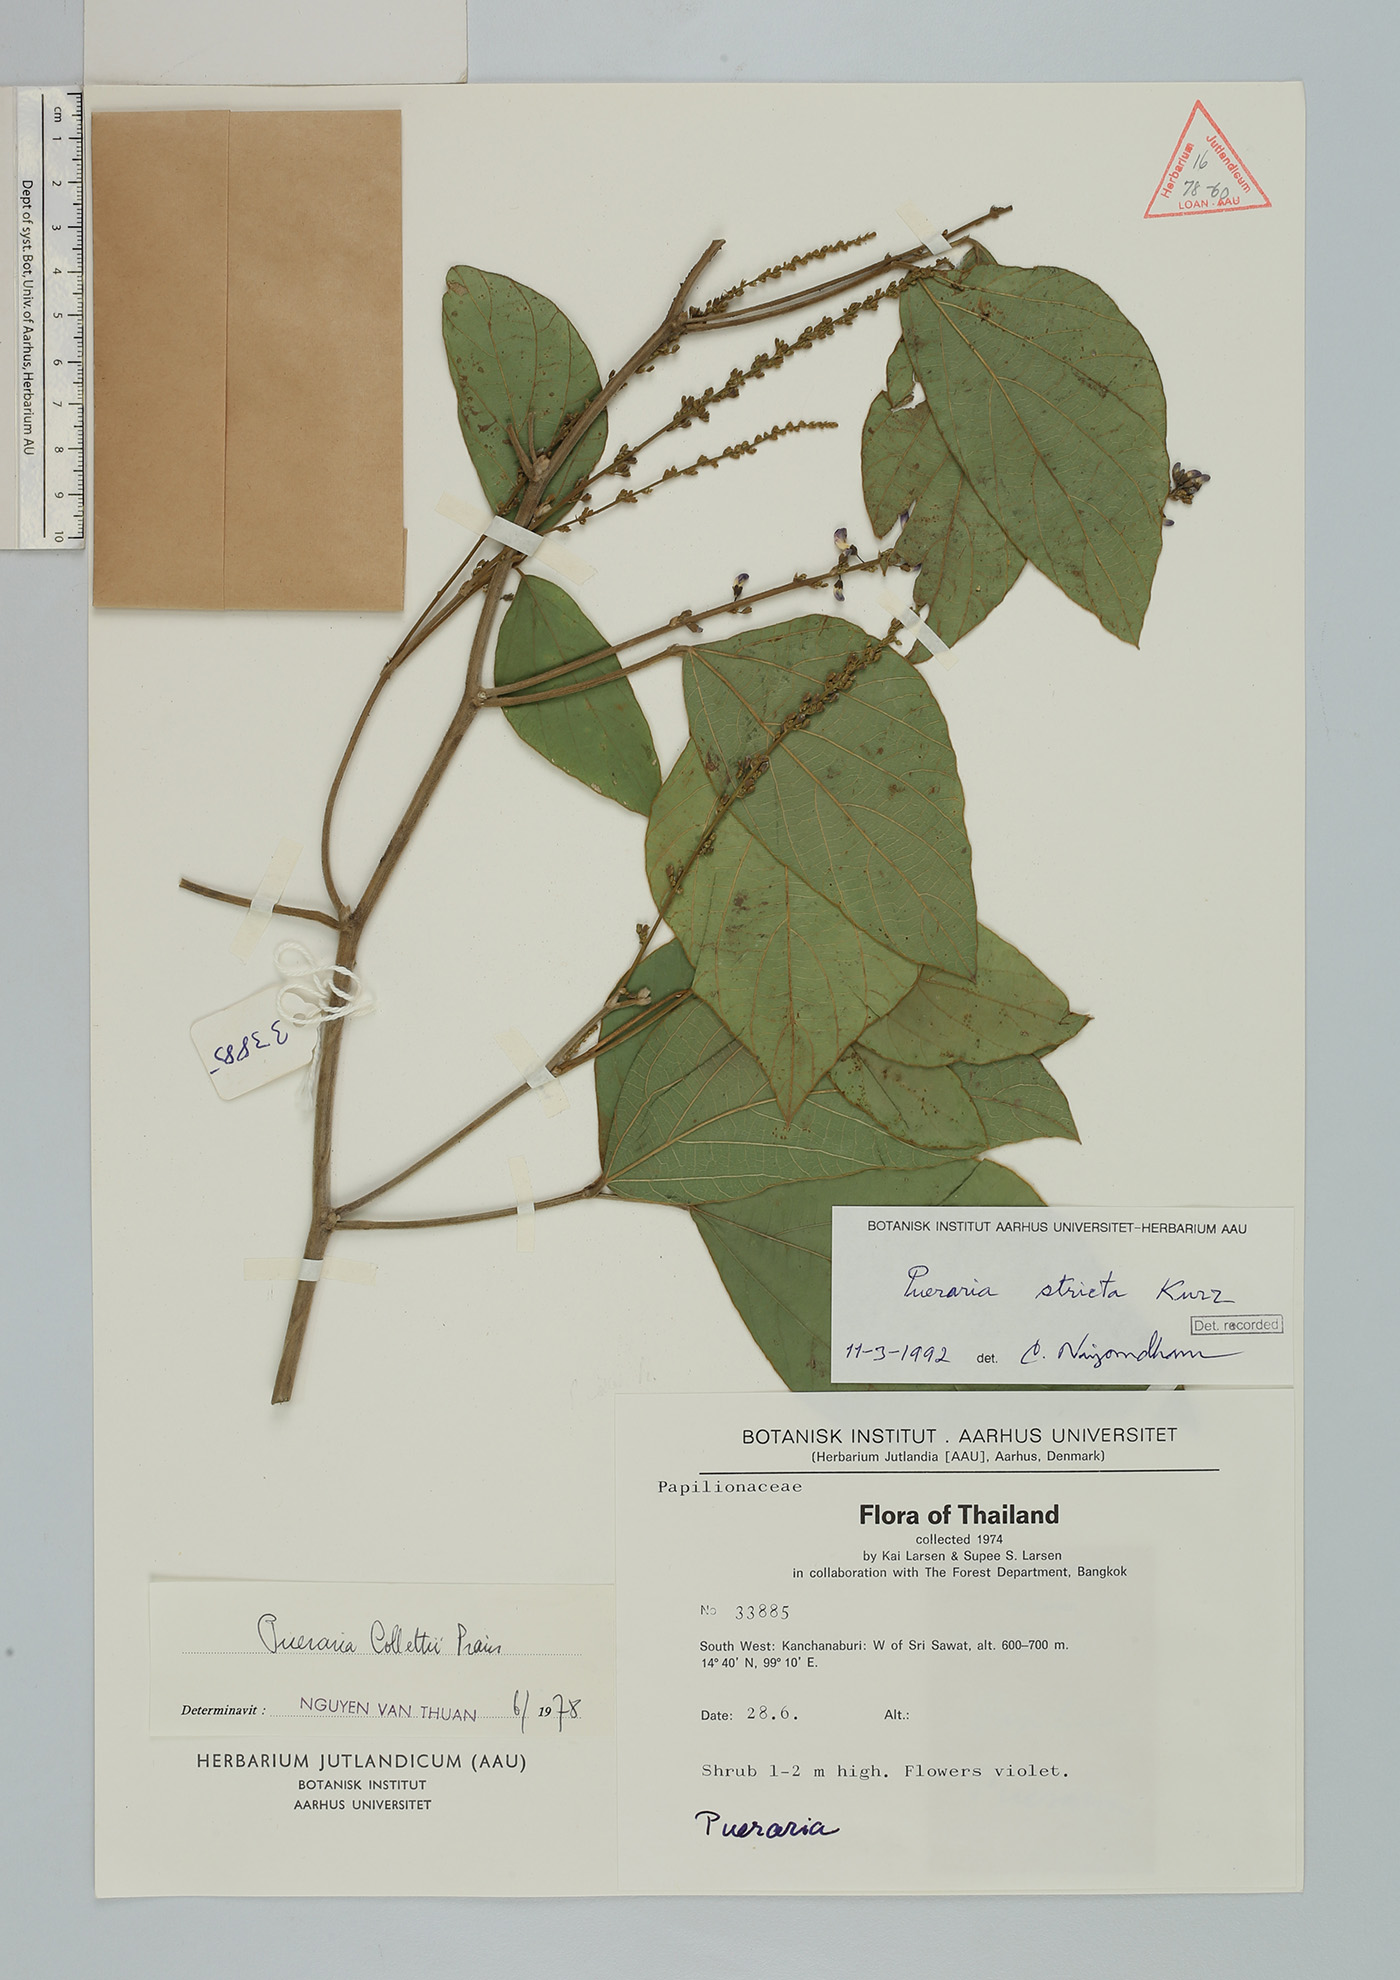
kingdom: Plantae
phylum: Tracheophyta
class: Magnoliopsida
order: Fabales
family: Fabaceae
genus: Teyleria
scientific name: Teyleria stricta
